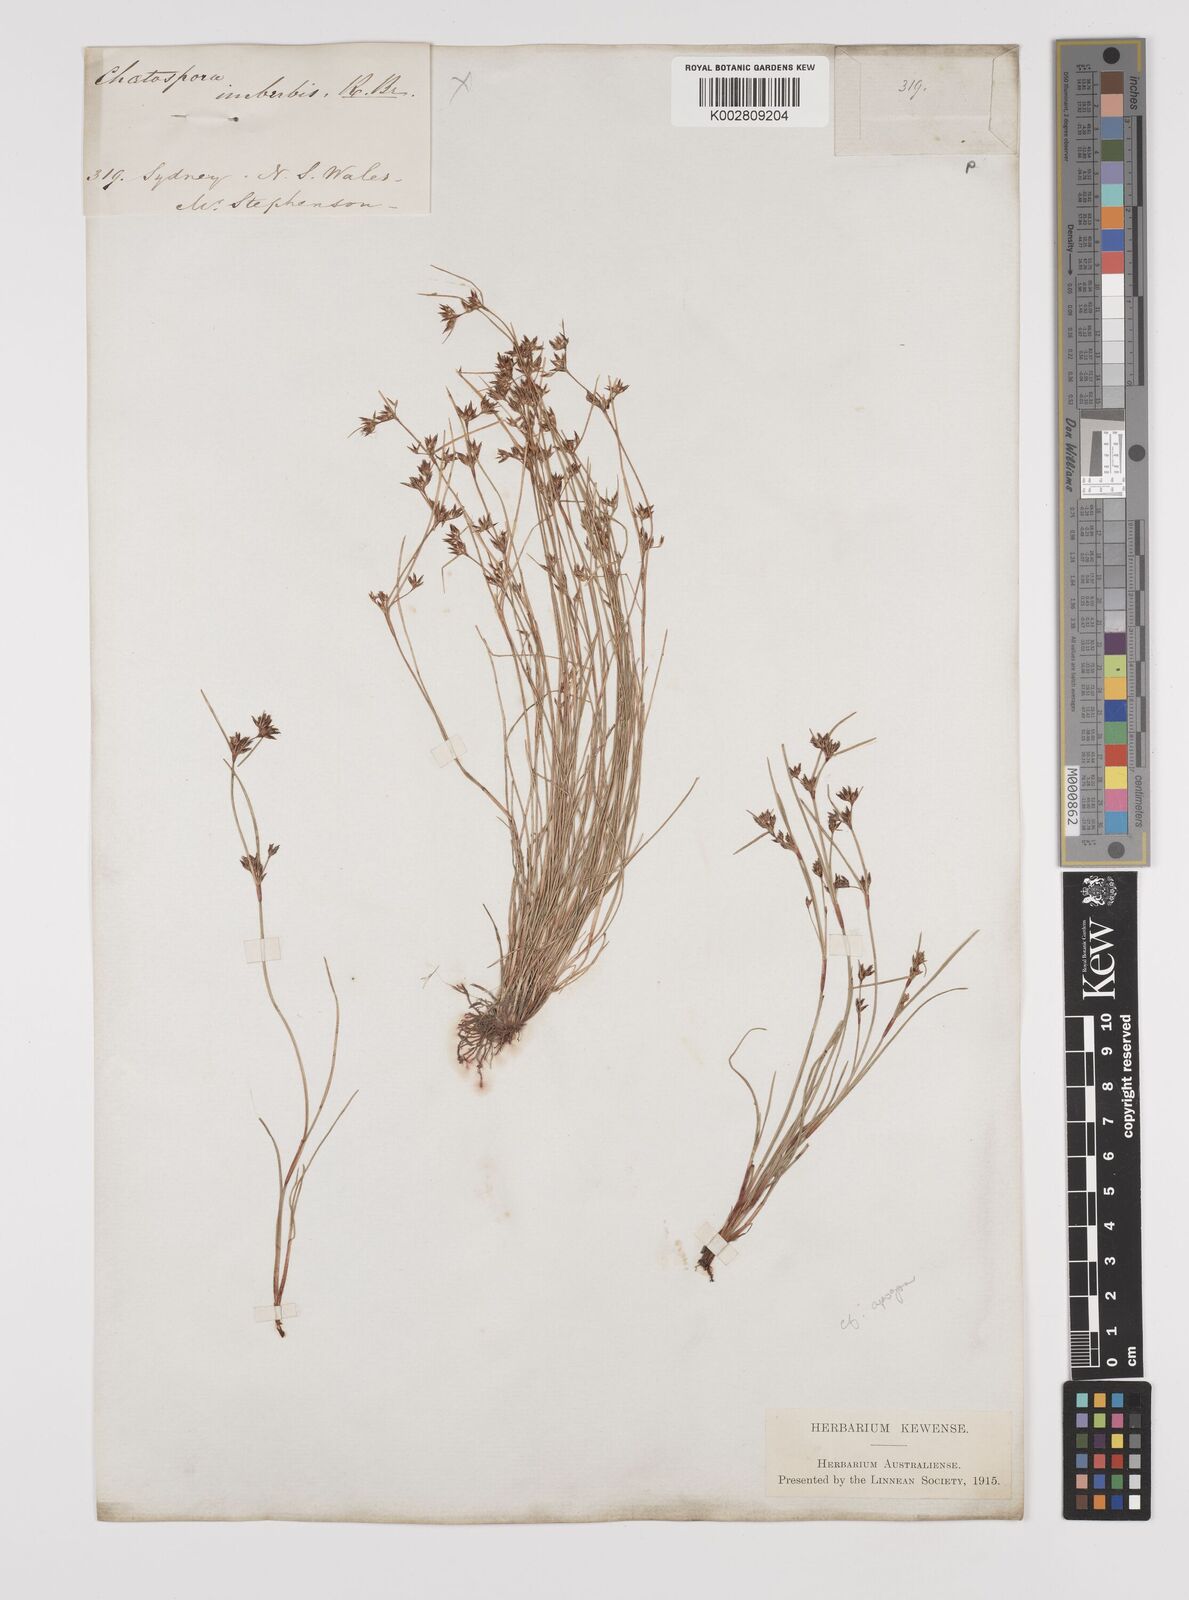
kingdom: Plantae
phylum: Tracheophyta
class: Liliopsida
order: Poales
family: Cyperaceae
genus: Schoenus
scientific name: Schoenus apogon
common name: Smooth bogrush
